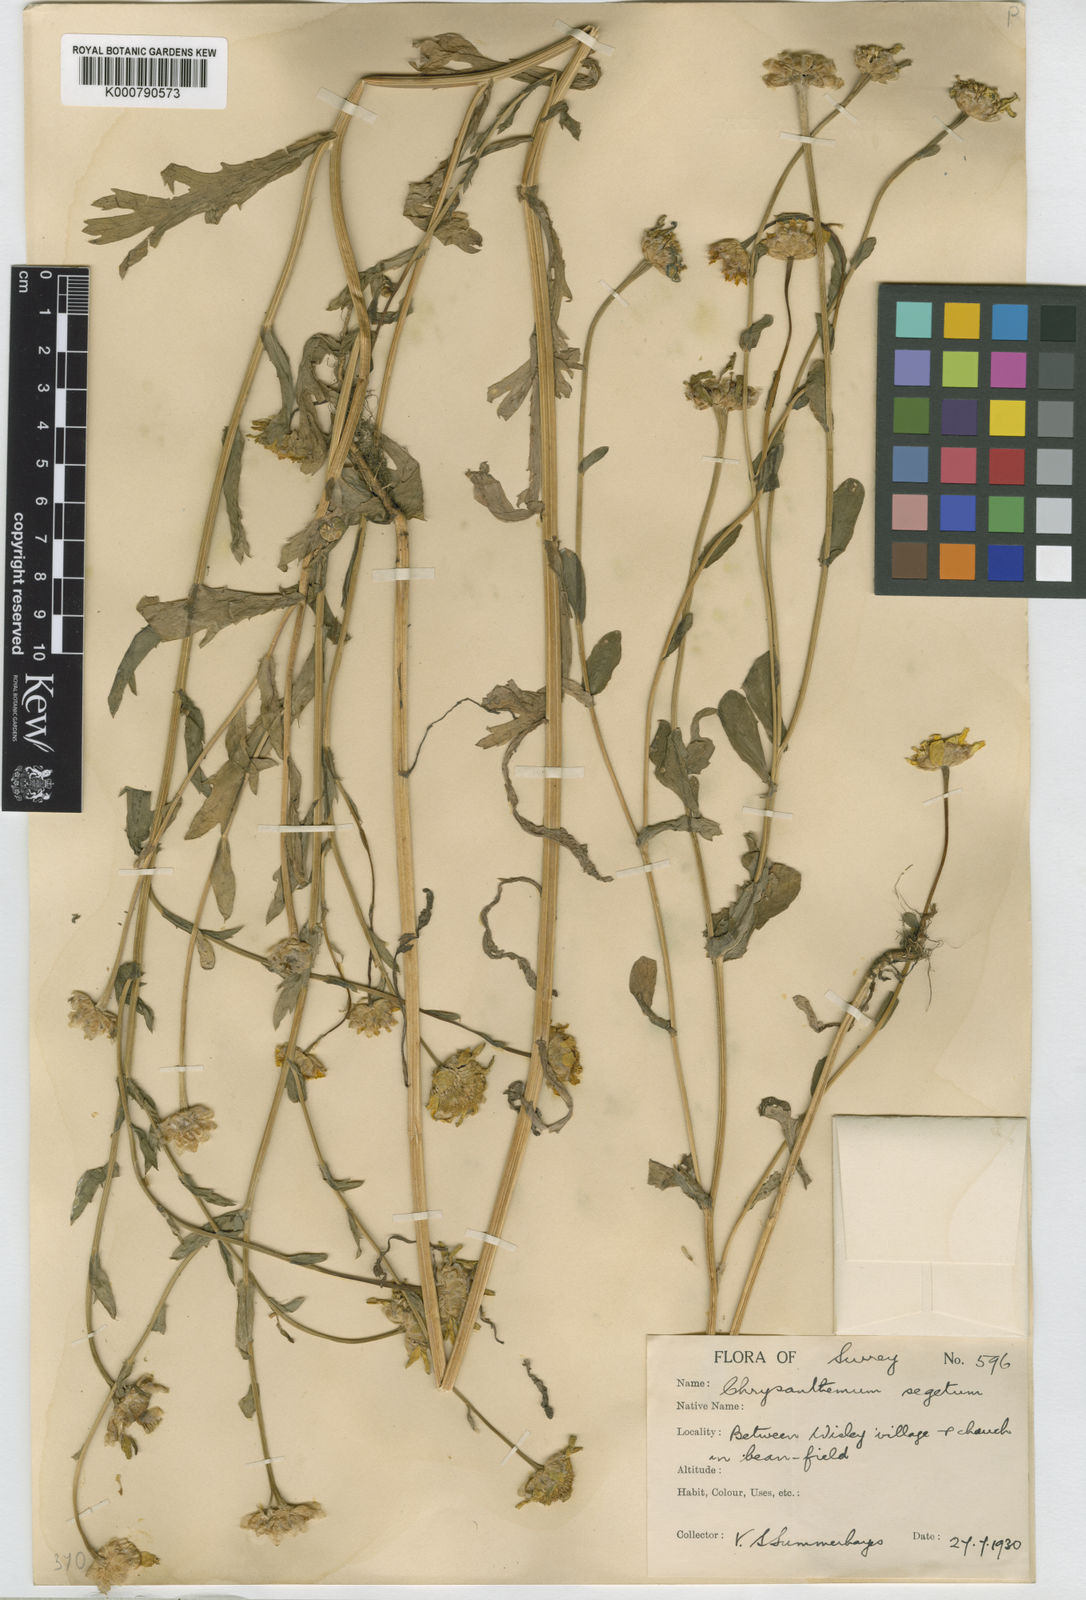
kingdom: Plantae
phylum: Tracheophyta
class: Magnoliopsida
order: Asterales
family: Asteraceae
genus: Glebionis
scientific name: Glebionis
